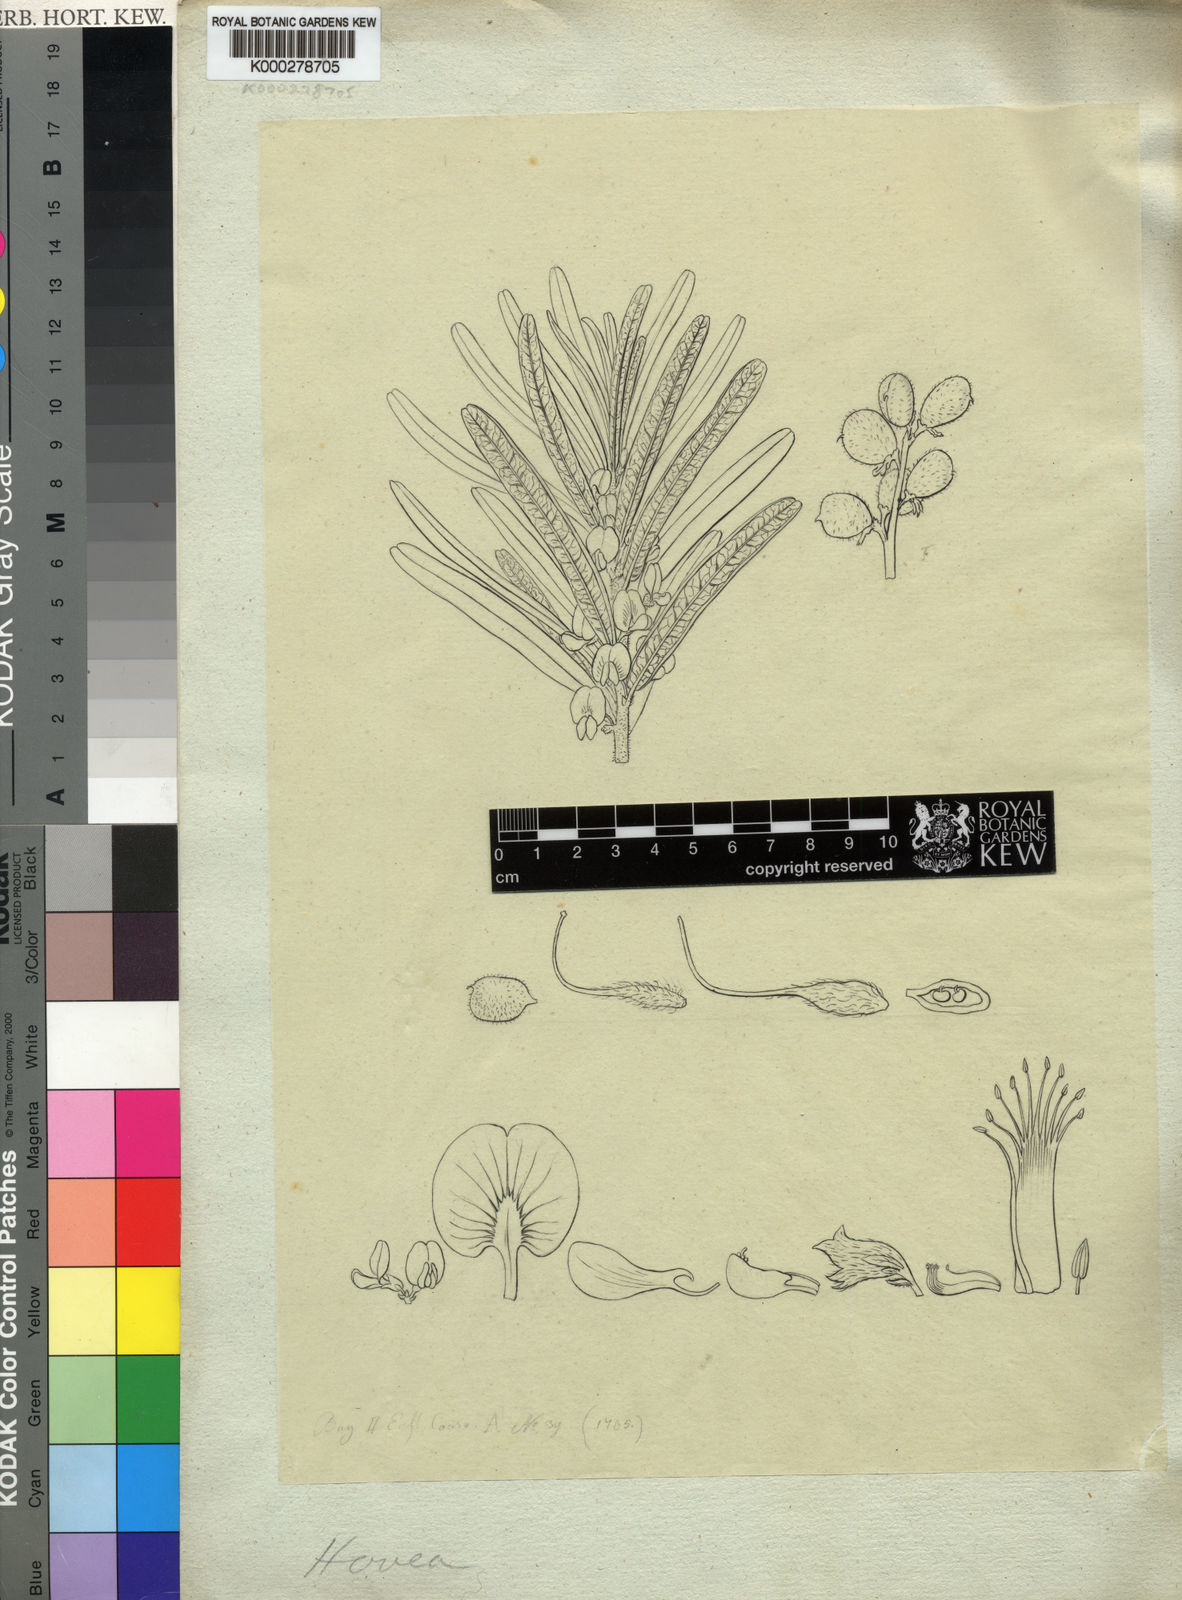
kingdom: Plantae
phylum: Tracheophyta
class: Magnoliopsida
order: Fabales
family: Fabaceae
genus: Hovea
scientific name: Hovea
